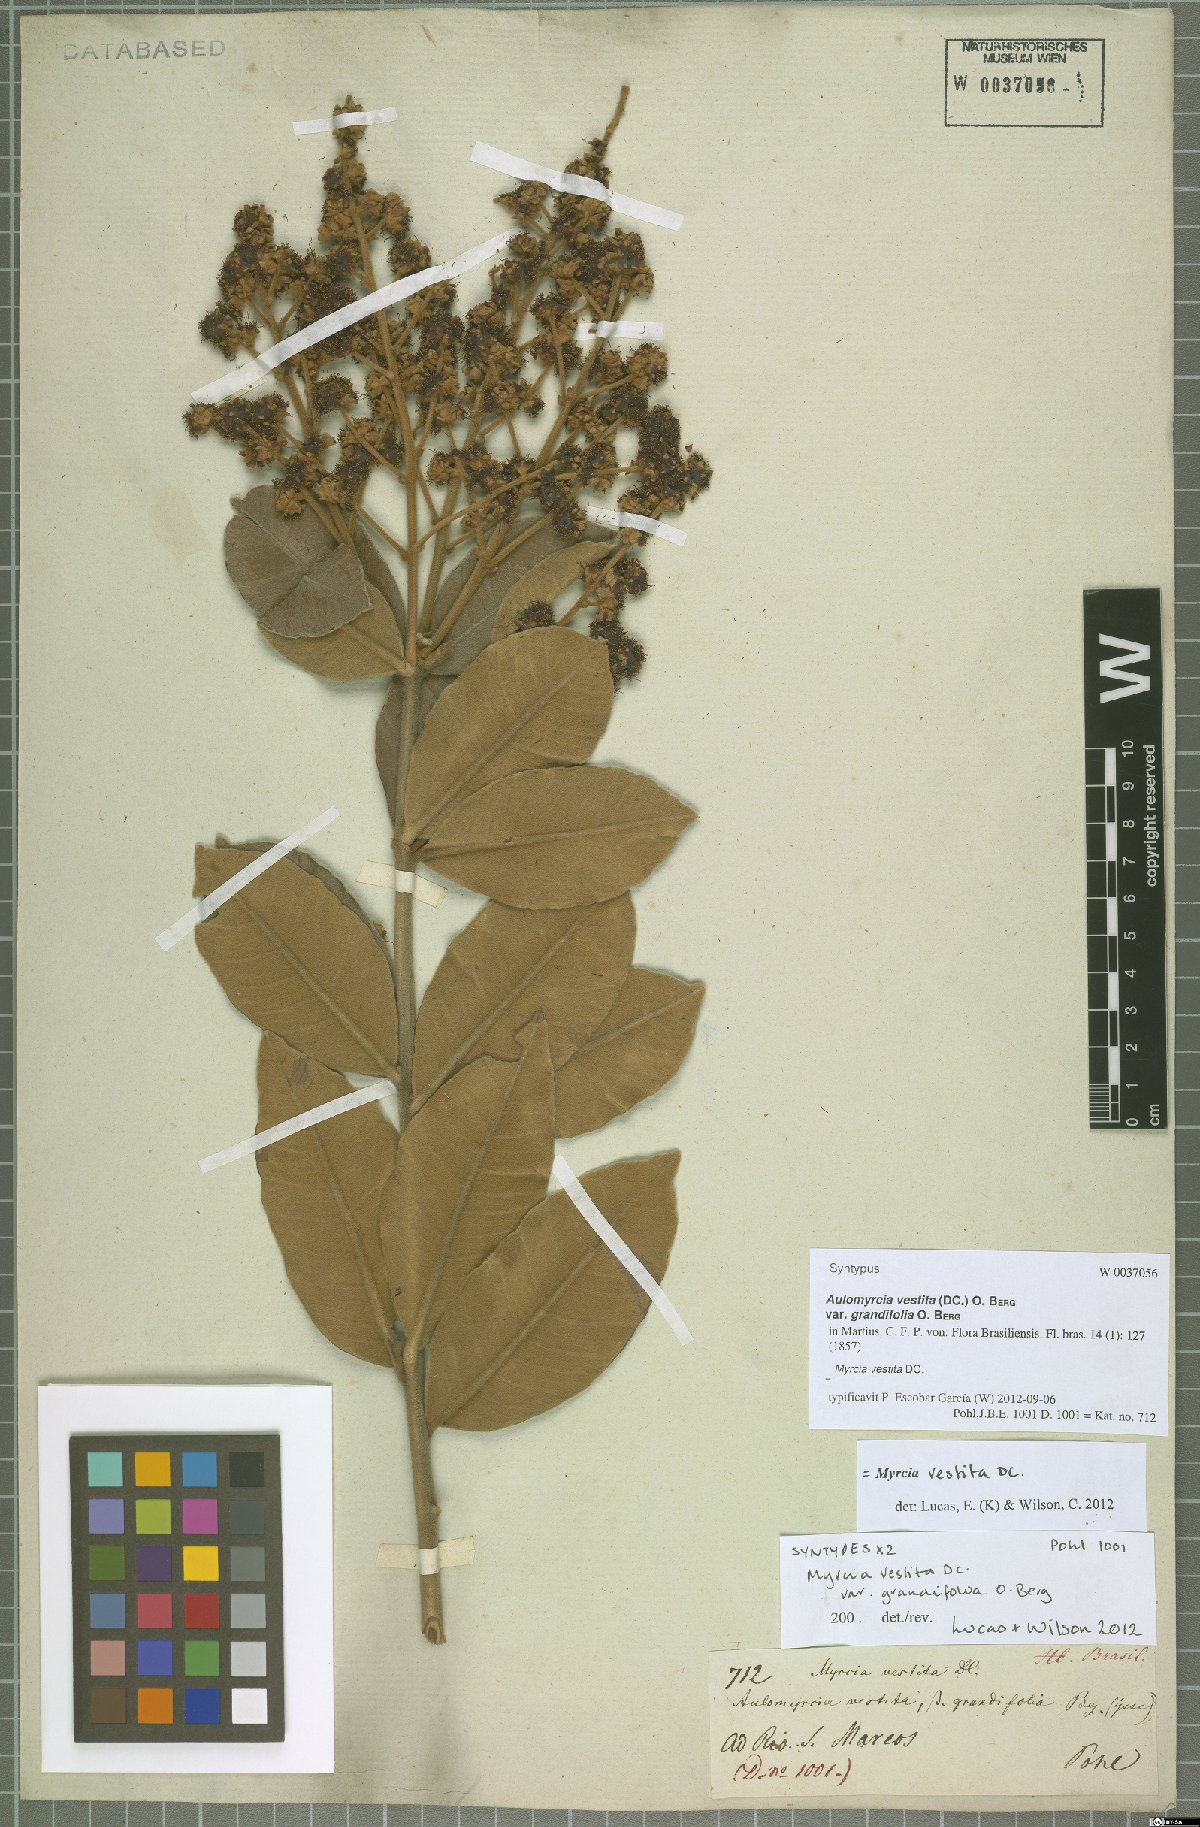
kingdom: Plantae
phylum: Tracheophyta
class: Magnoliopsida
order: Myrtales
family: Myrtaceae
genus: Myrcia
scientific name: Myrcia vestita
